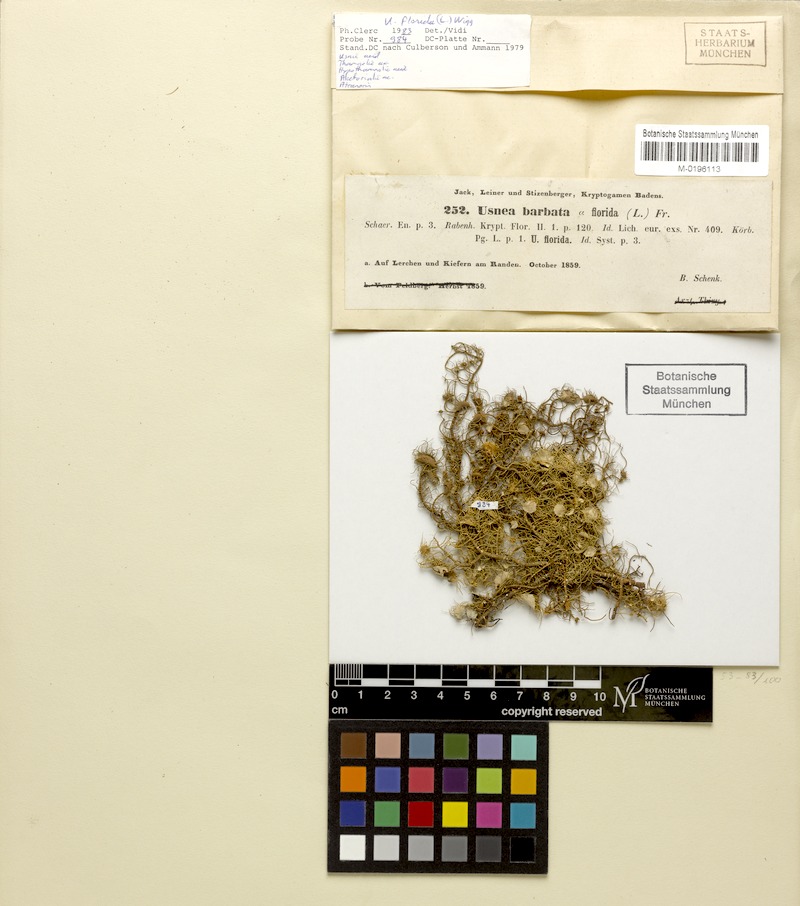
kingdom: Fungi
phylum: Ascomycota
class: Lecanoromycetes
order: Lecanorales
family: Parmeliaceae
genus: Usnea
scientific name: Usnea florida
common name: Witches' whiskers lichen
